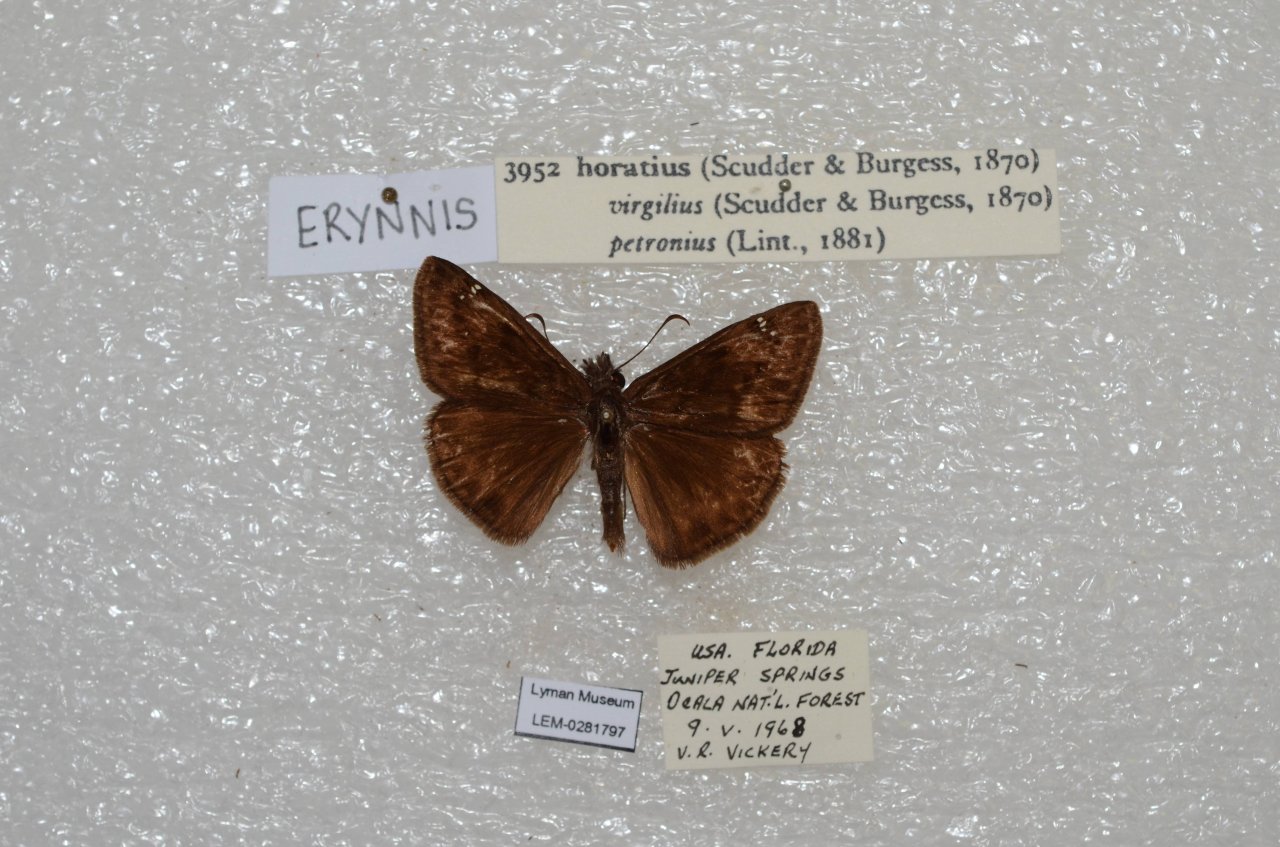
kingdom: Animalia
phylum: Arthropoda
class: Insecta
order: Lepidoptera
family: Hesperiidae
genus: Gesta
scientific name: Gesta
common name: Horace's Duskywing
